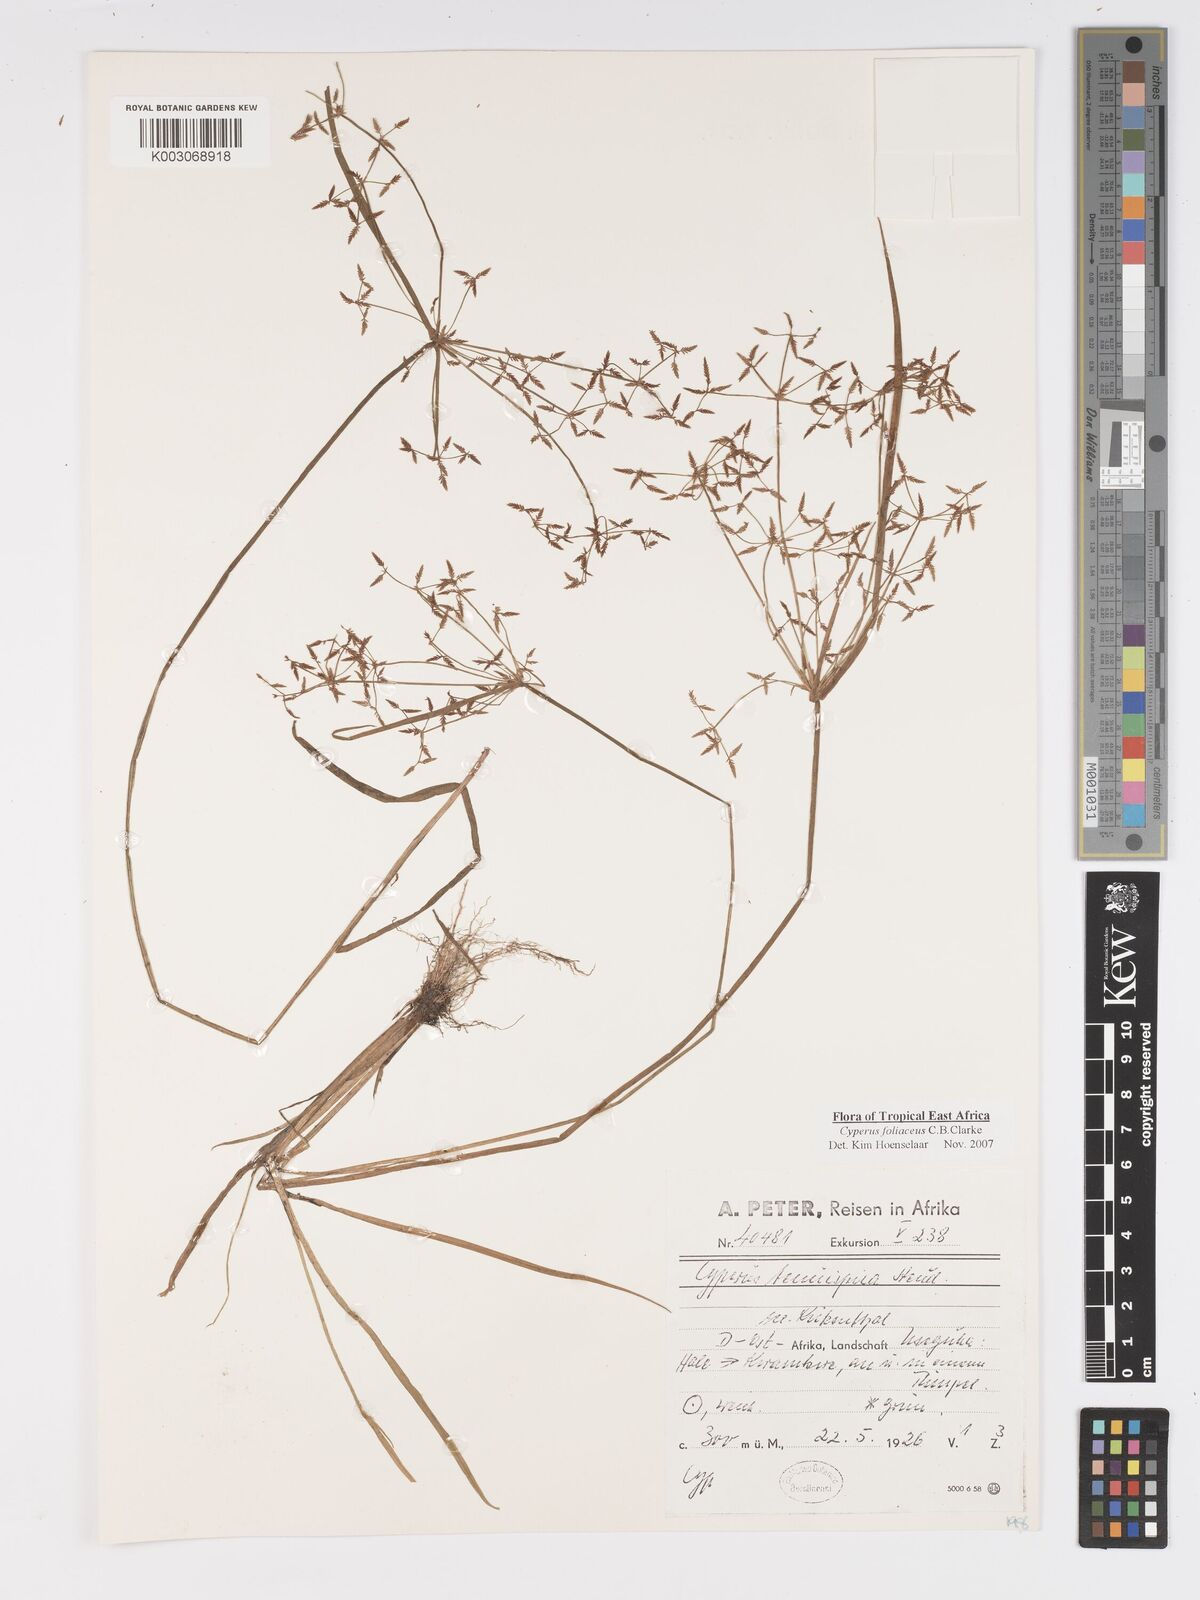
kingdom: Plantae
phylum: Tracheophyta
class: Liliopsida
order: Poales
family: Cyperaceae
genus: Cyperus
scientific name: Cyperus foliaceus
